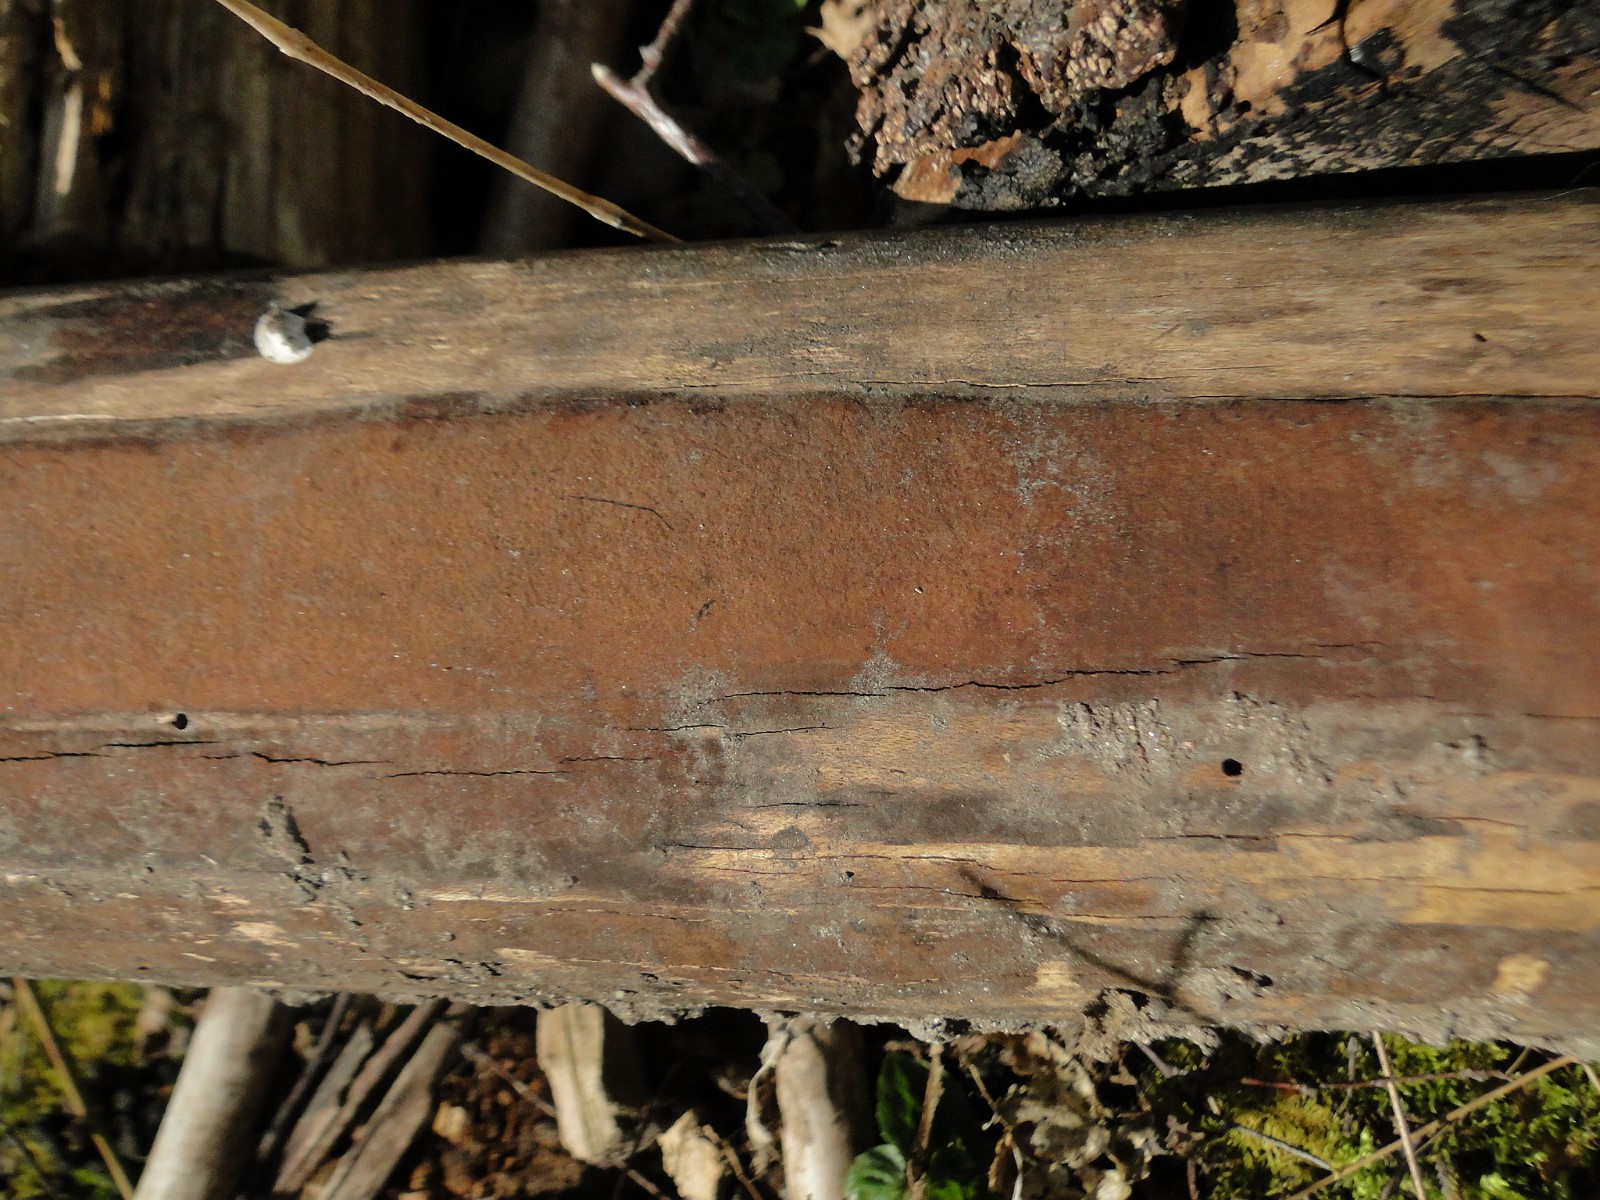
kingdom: Fungi
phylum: Ascomycota
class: Sordariomycetes
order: Xylariales
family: Hypoxylaceae
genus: Hypoxylon
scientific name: Hypoxylon macrocarpum
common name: skorpe-kulbær
